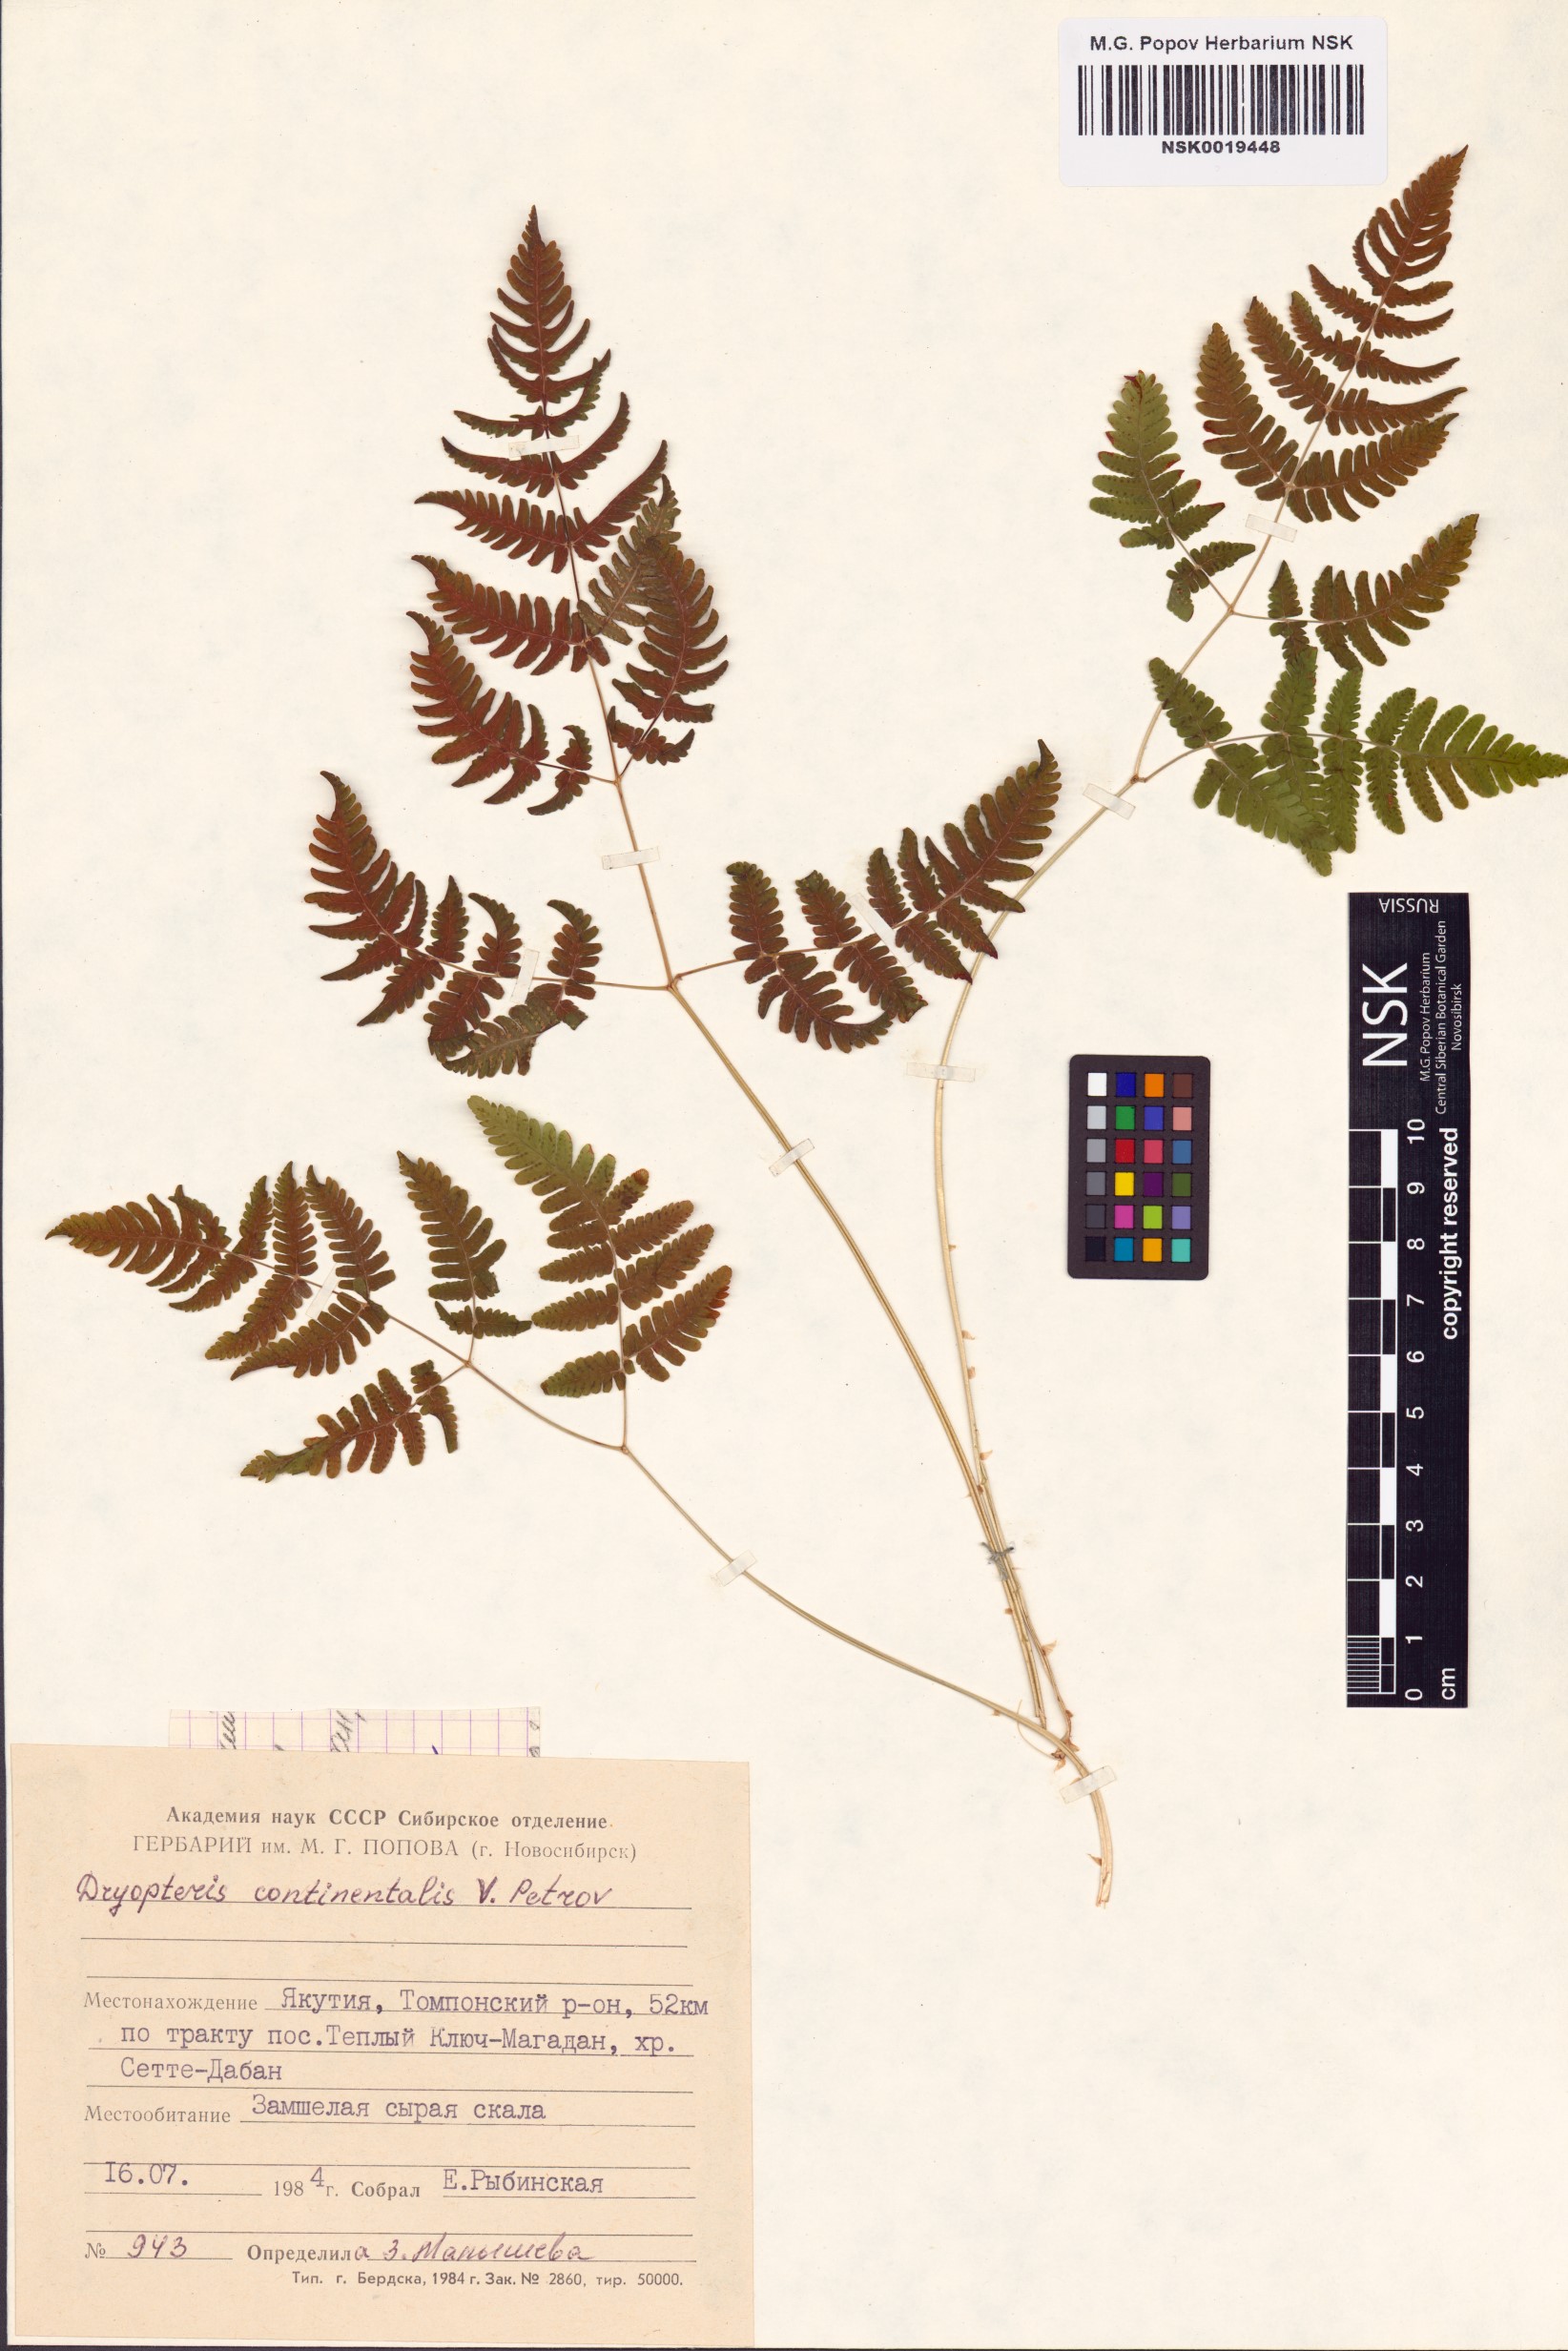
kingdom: Plantae
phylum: Tracheophyta
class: Polypodiopsida
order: Polypodiales
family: Cystopteridaceae
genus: Gymnocarpium
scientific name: Gymnocarpium continentale
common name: Asian oak fern
